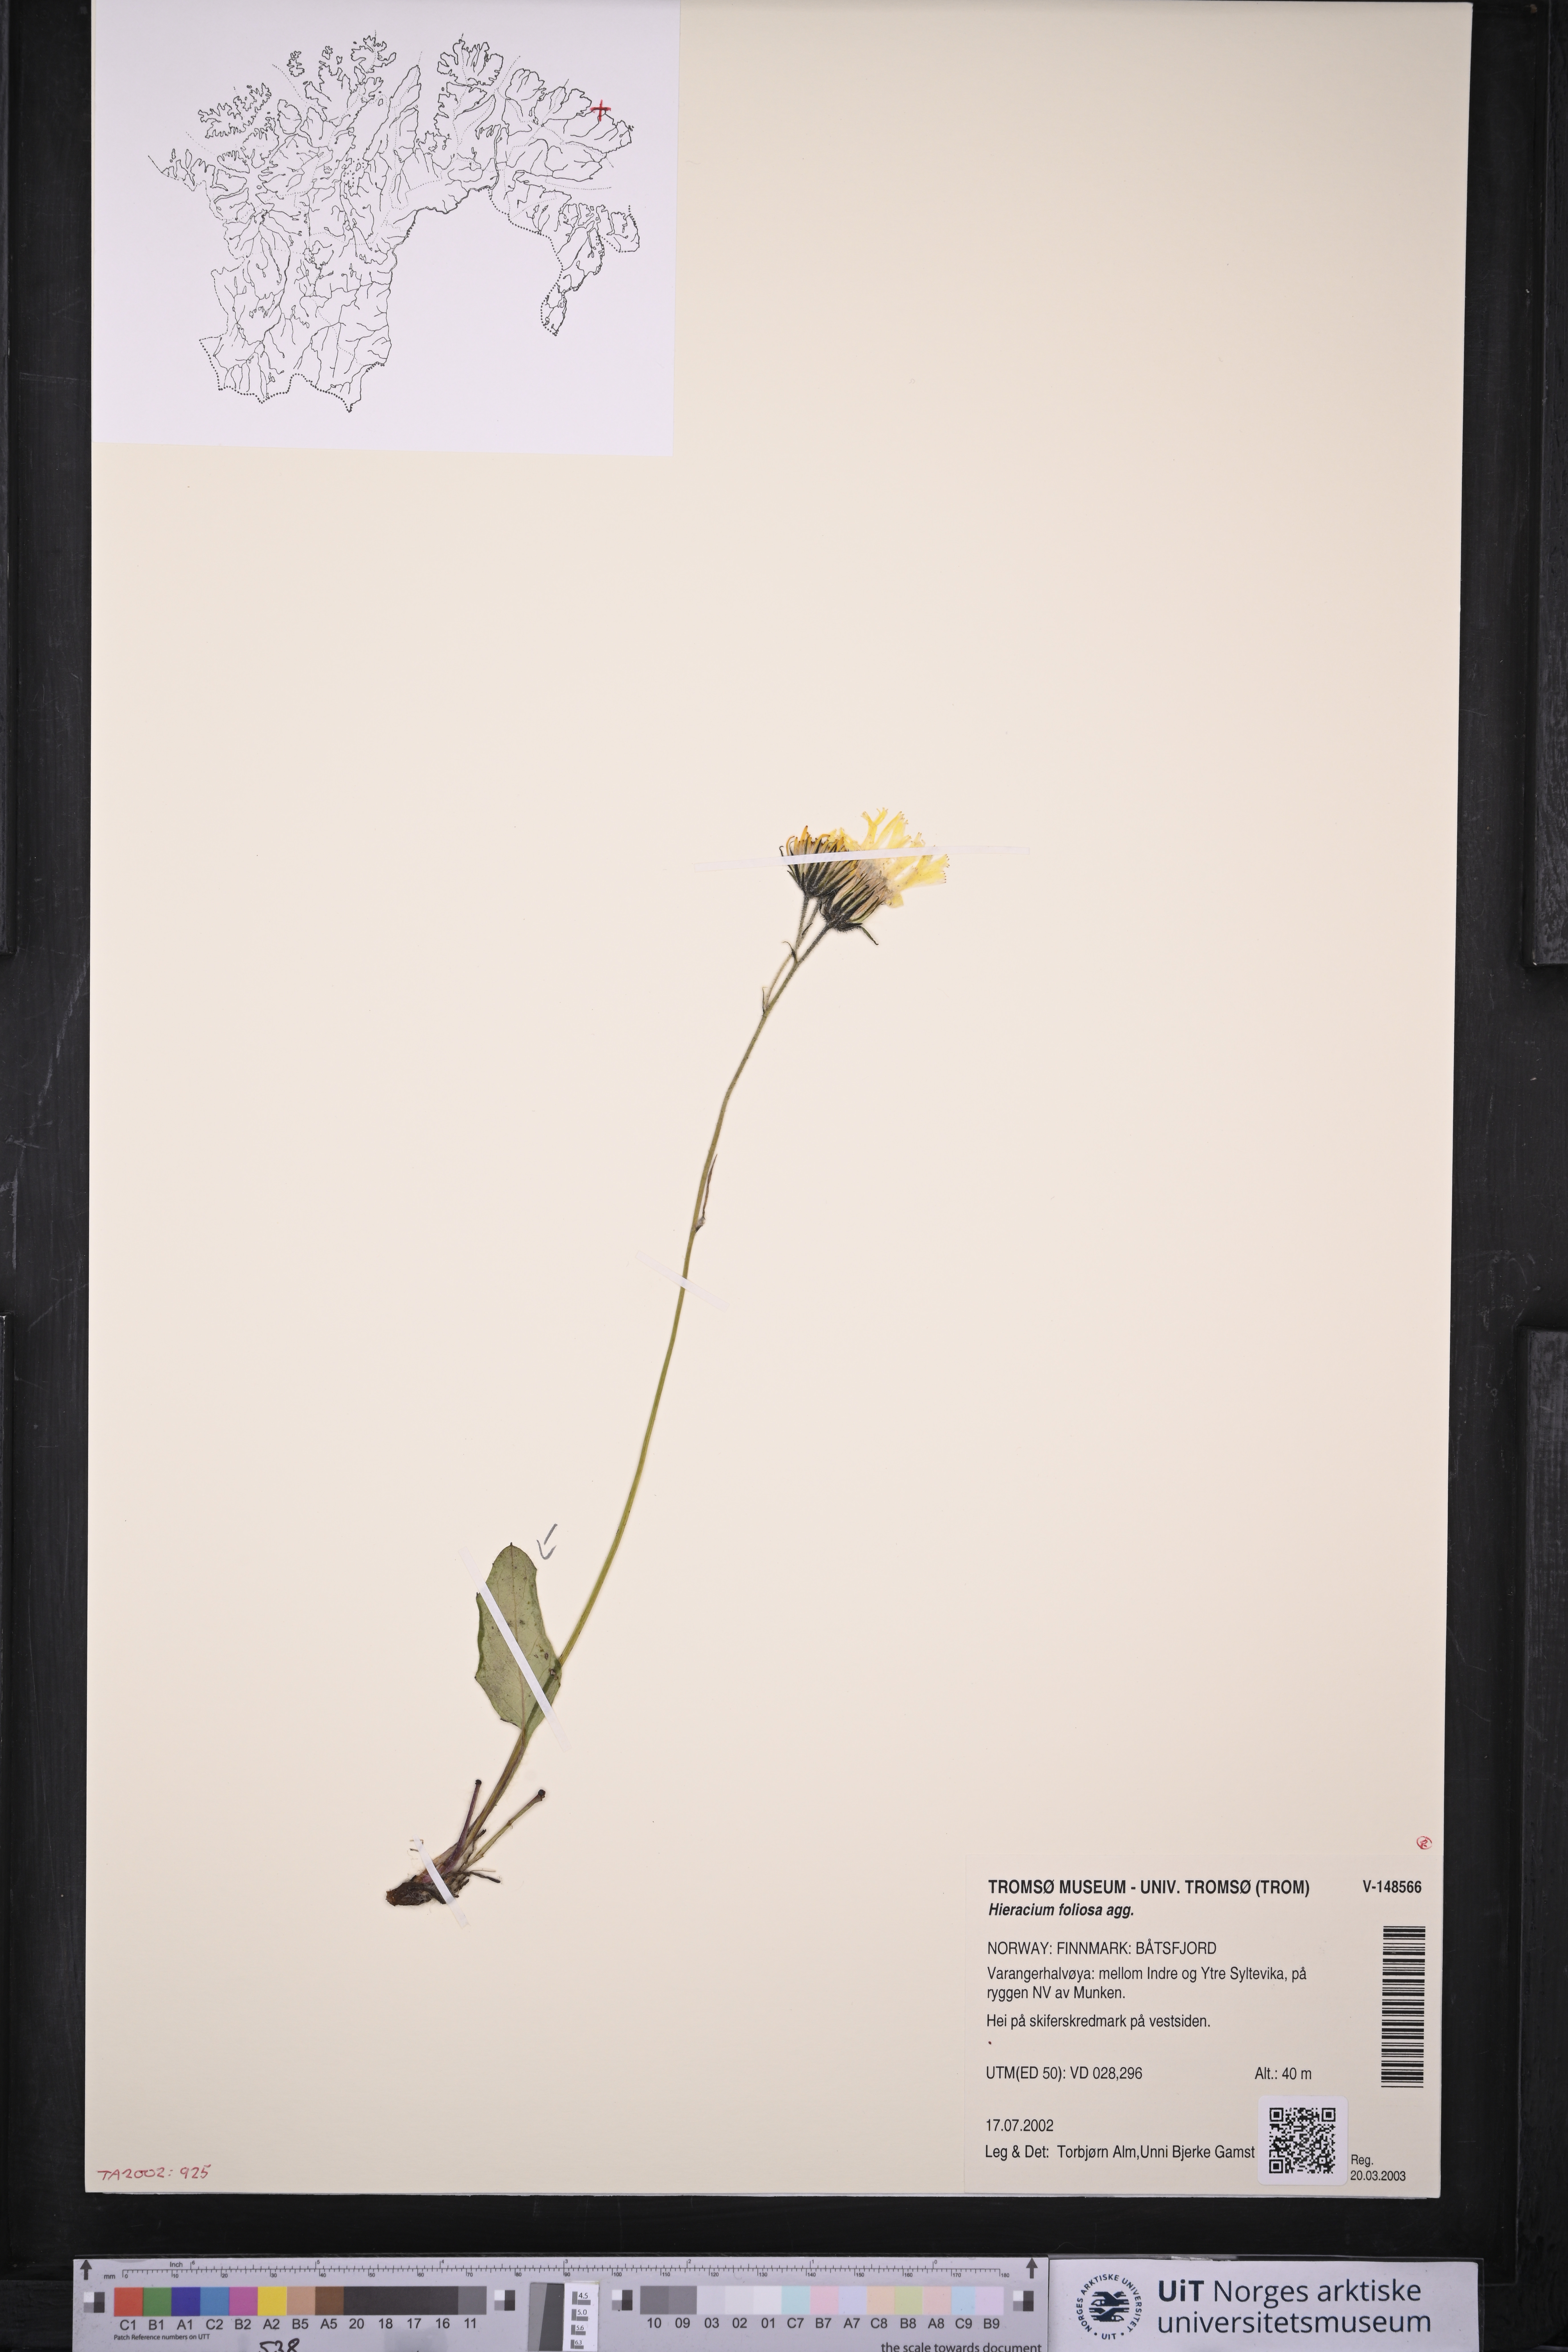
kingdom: Plantae
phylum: Tracheophyta
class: Magnoliopsida
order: Asterales
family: Asteraceae
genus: Hieracium
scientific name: Hieracium
